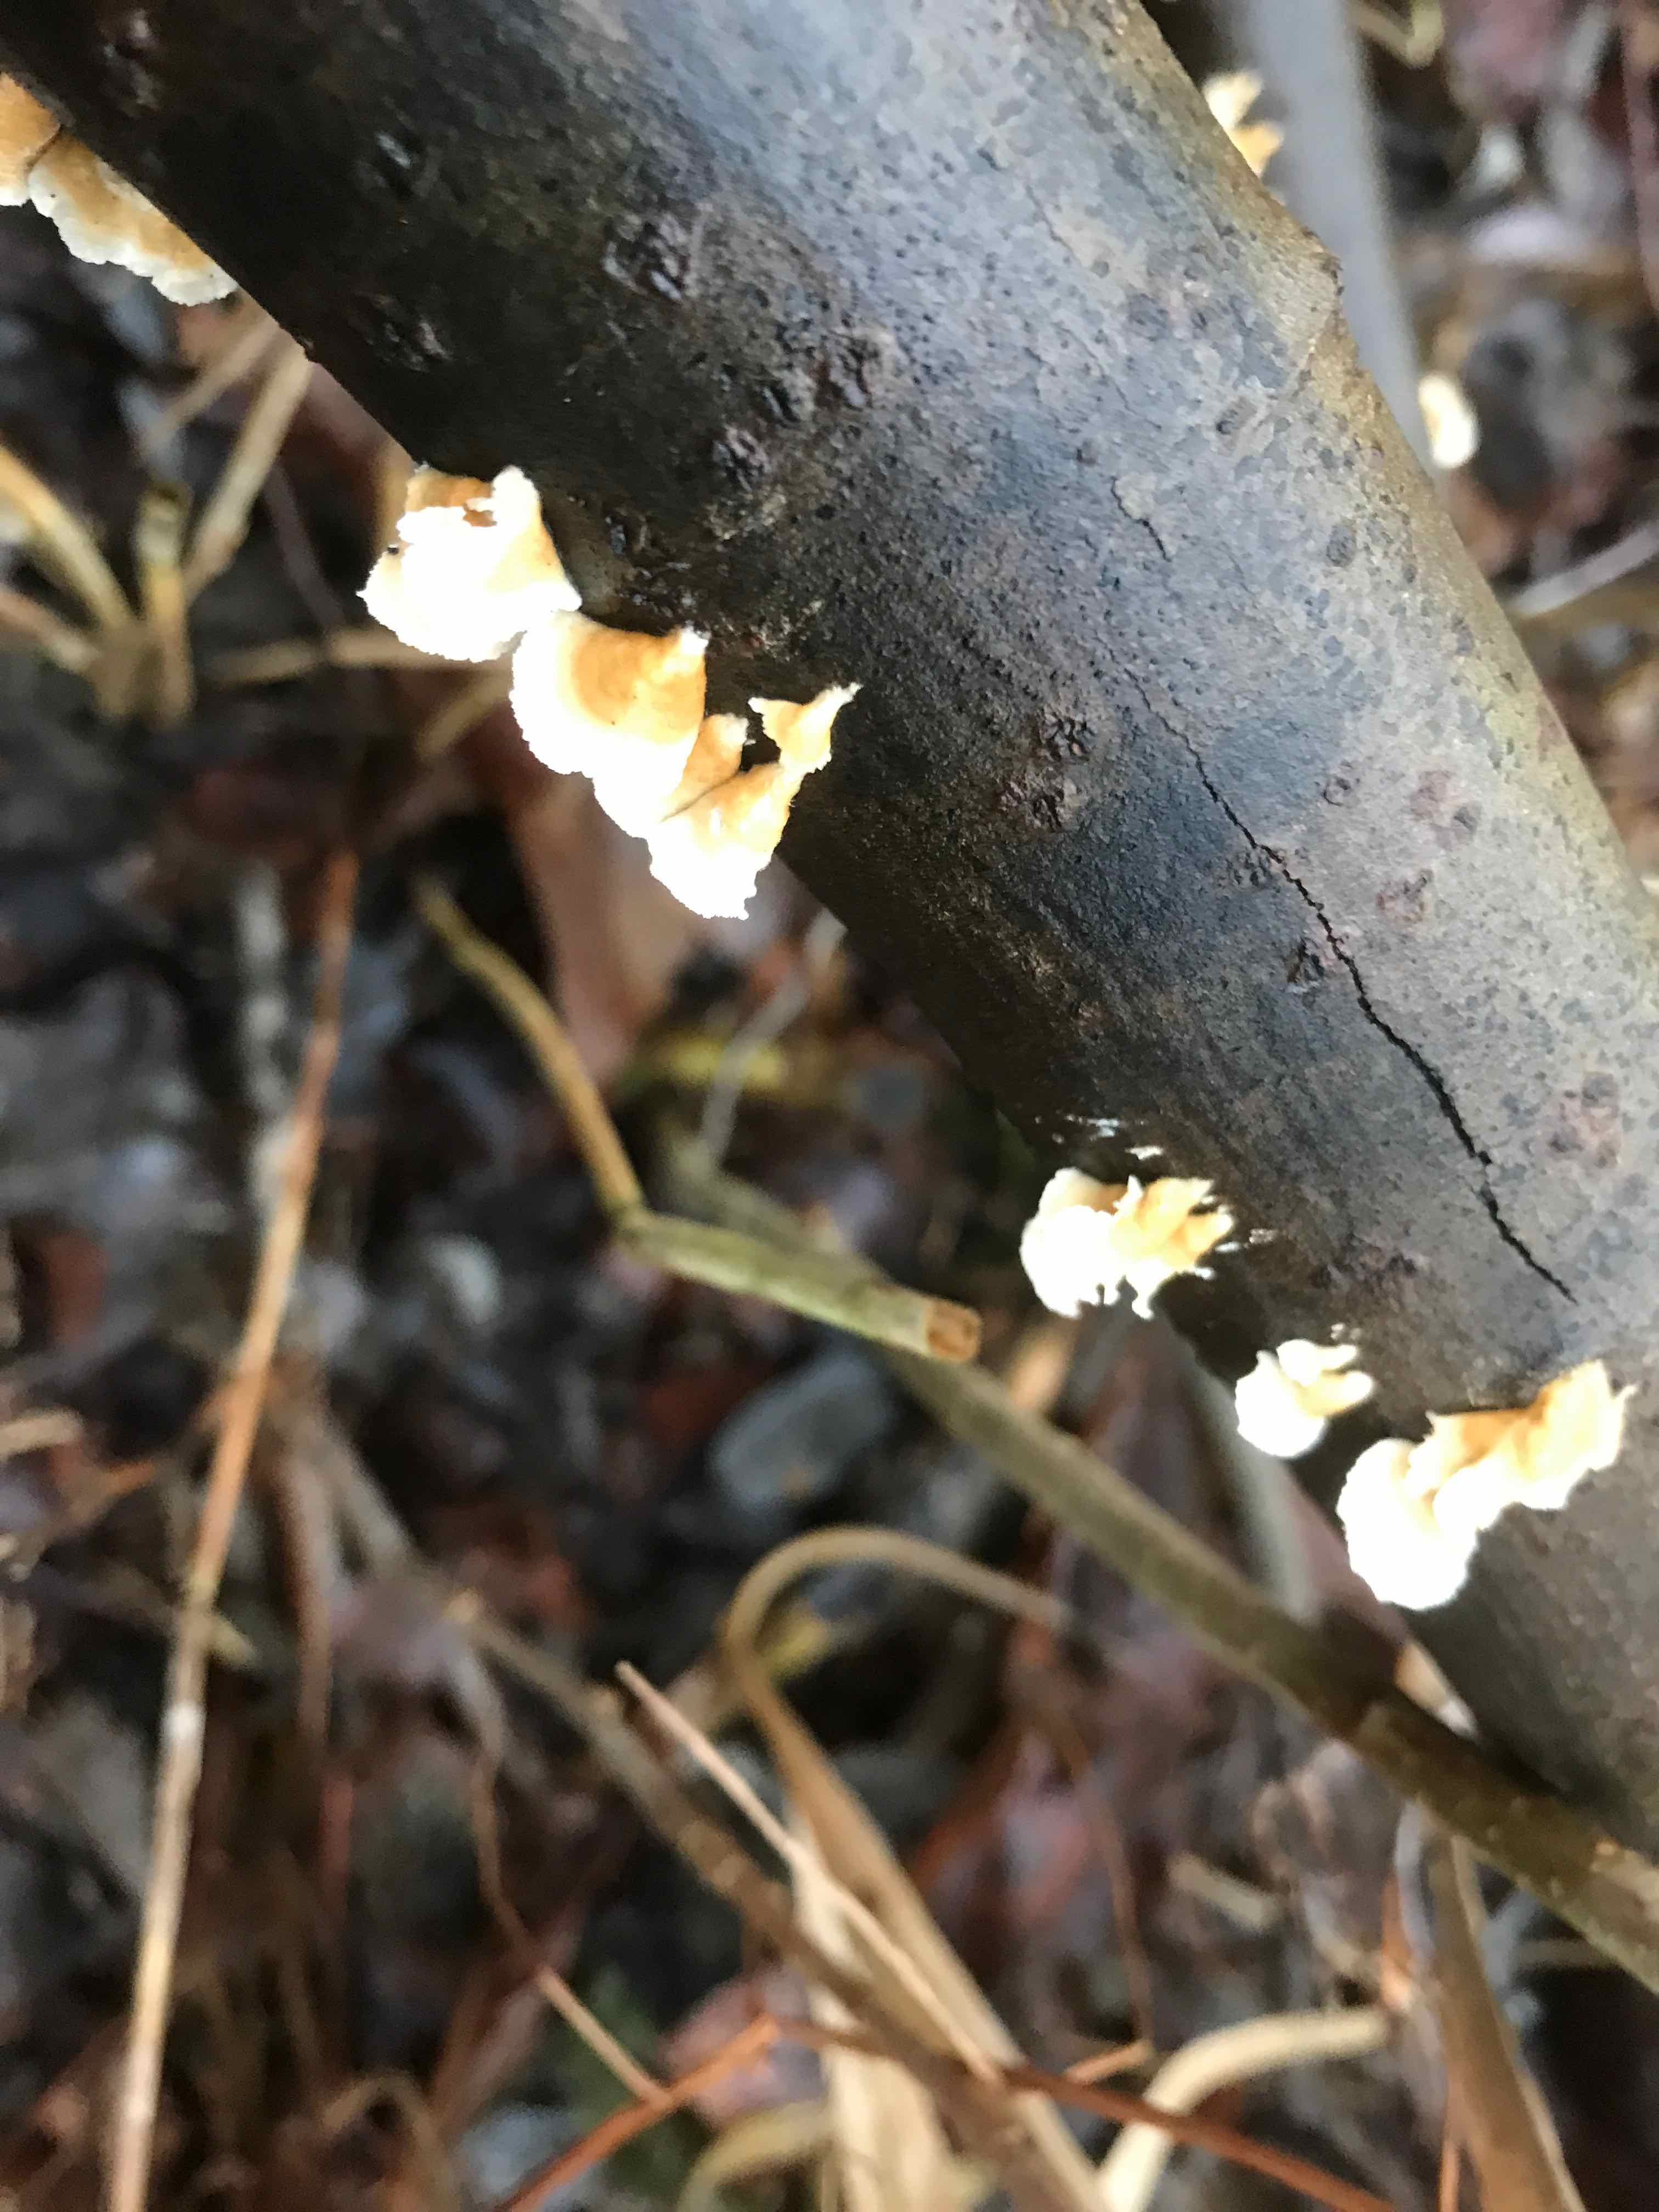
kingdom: Fungi
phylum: Basidiomycota
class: Agaricomycetes
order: Amylocorticiales
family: Amylocorticiaceae
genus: Plicaturopsis
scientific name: Plicaturopsis crispa
